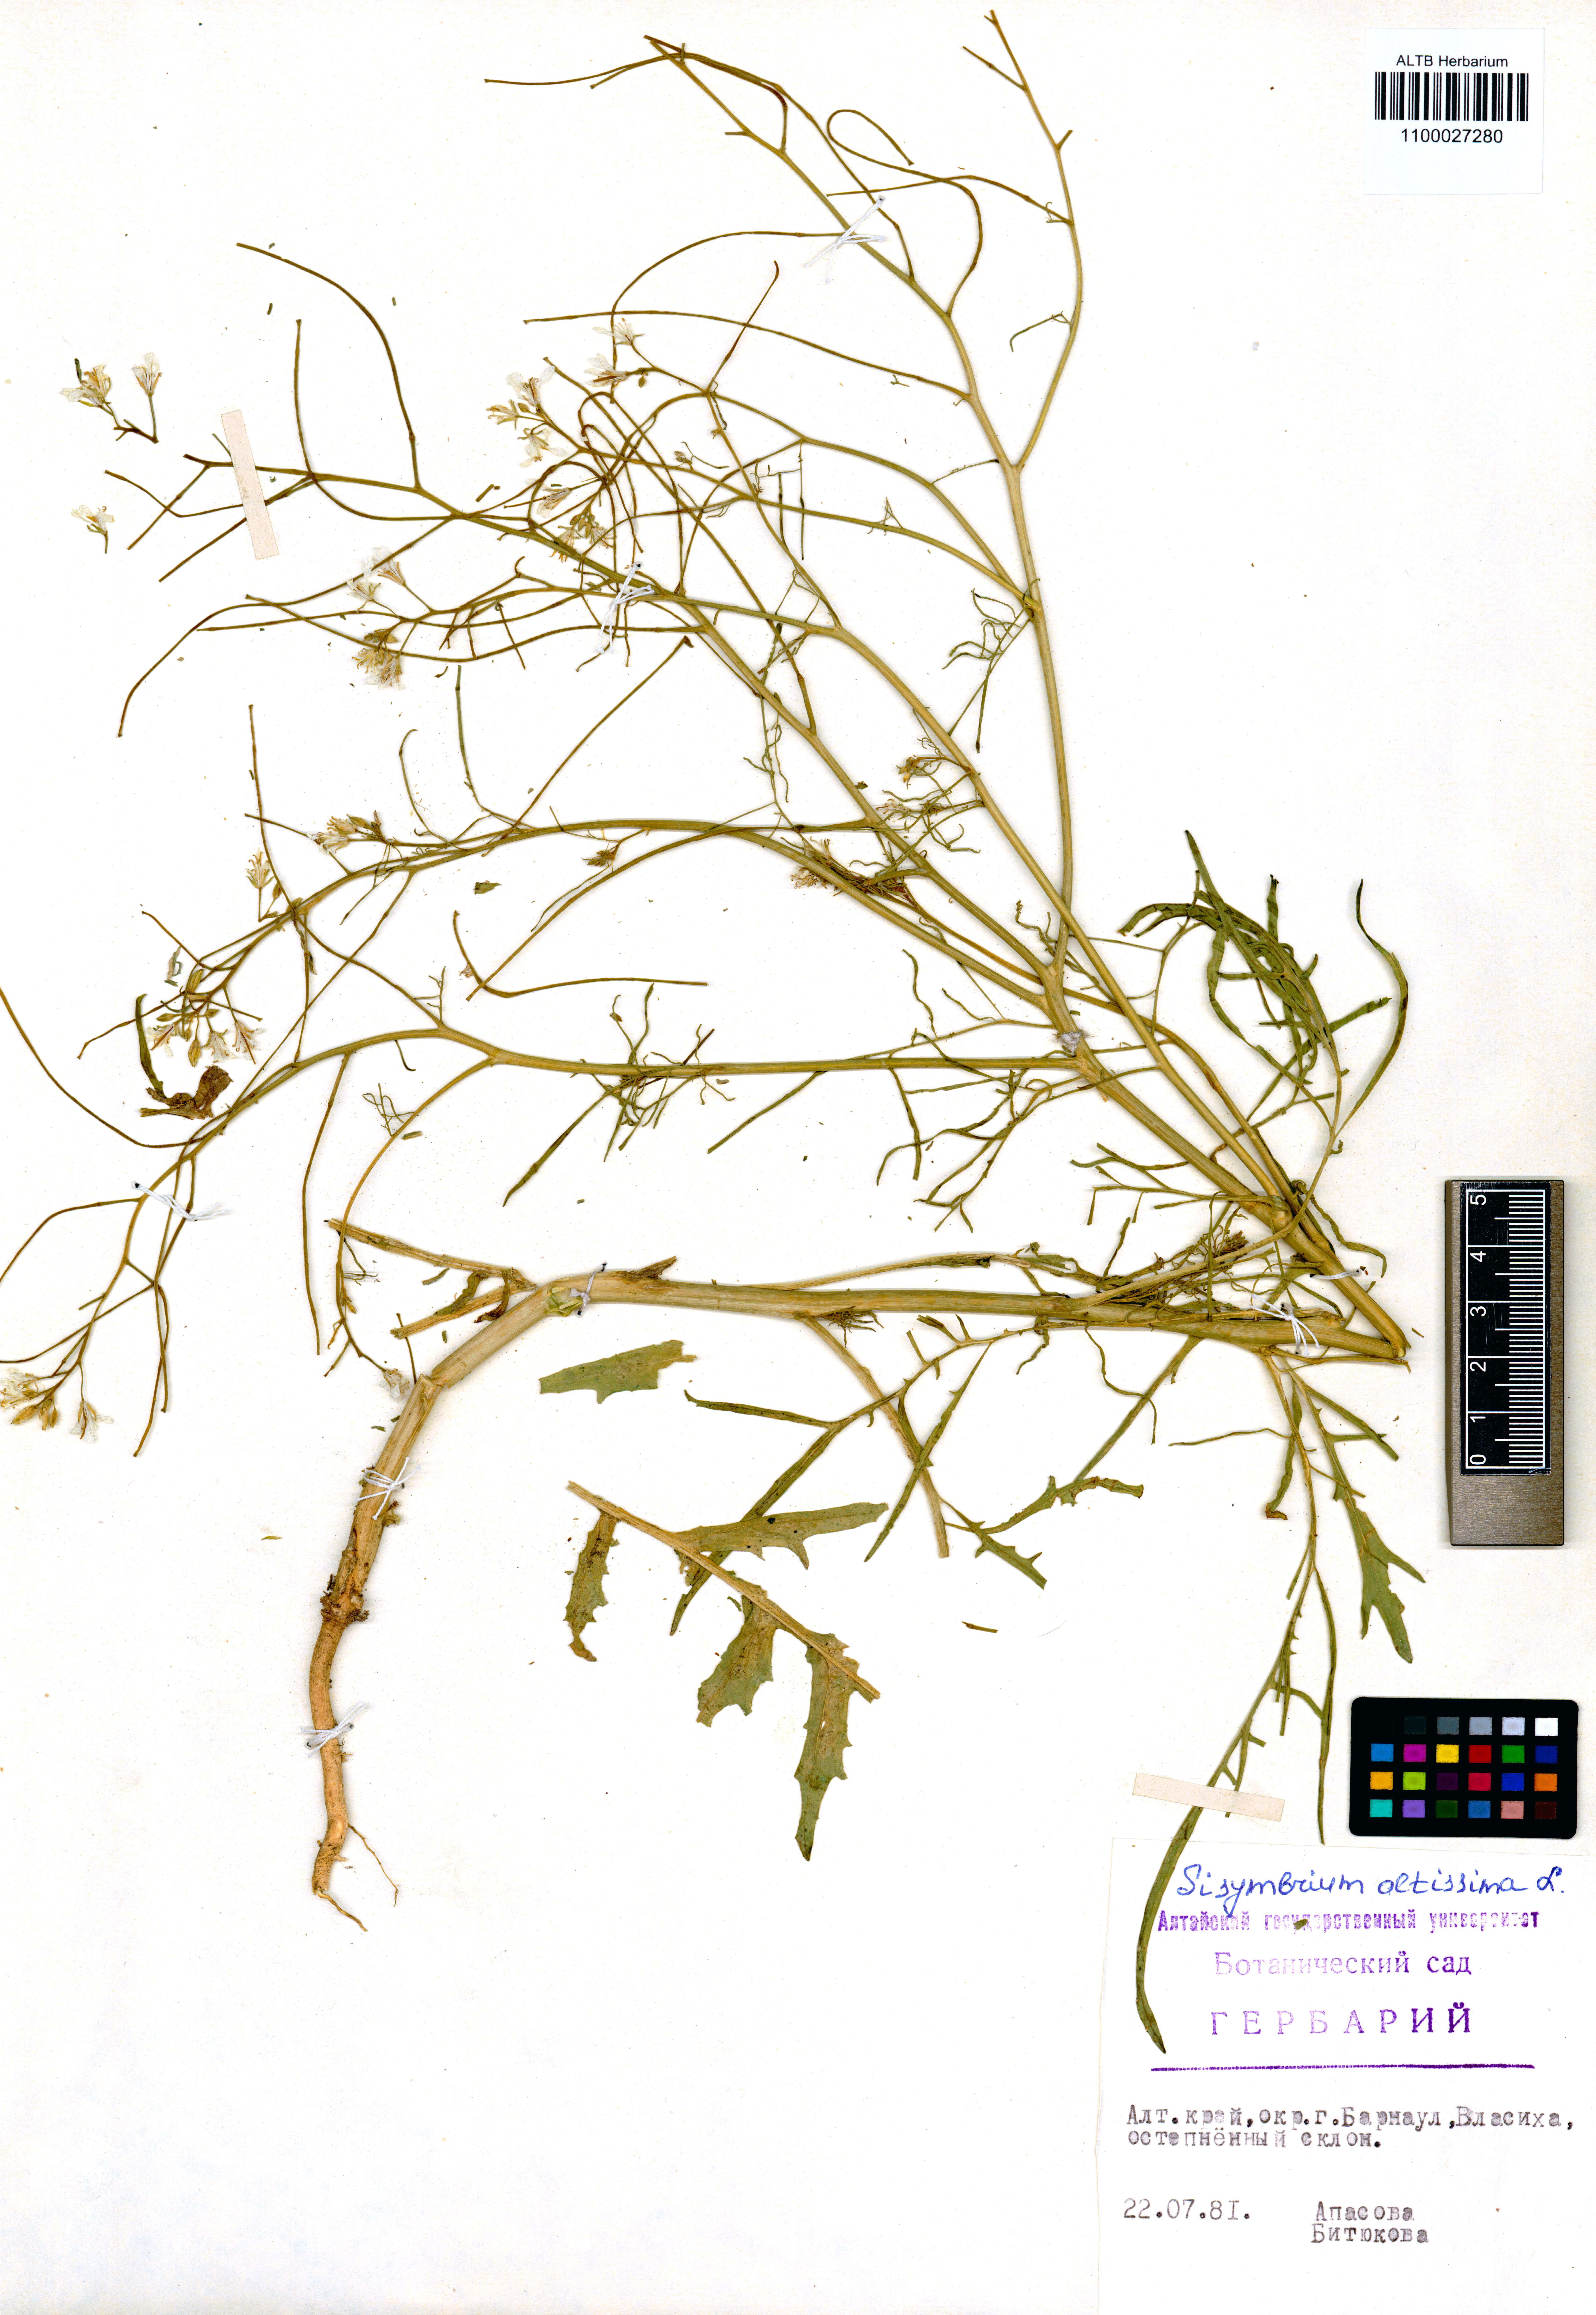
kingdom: Plantae
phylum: Tracheophyta
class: Magnoliopsida
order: Brassicales
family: Brassicaceae
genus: Sisymbrium
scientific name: Sisymbrium altissimum
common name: Tall rocket
